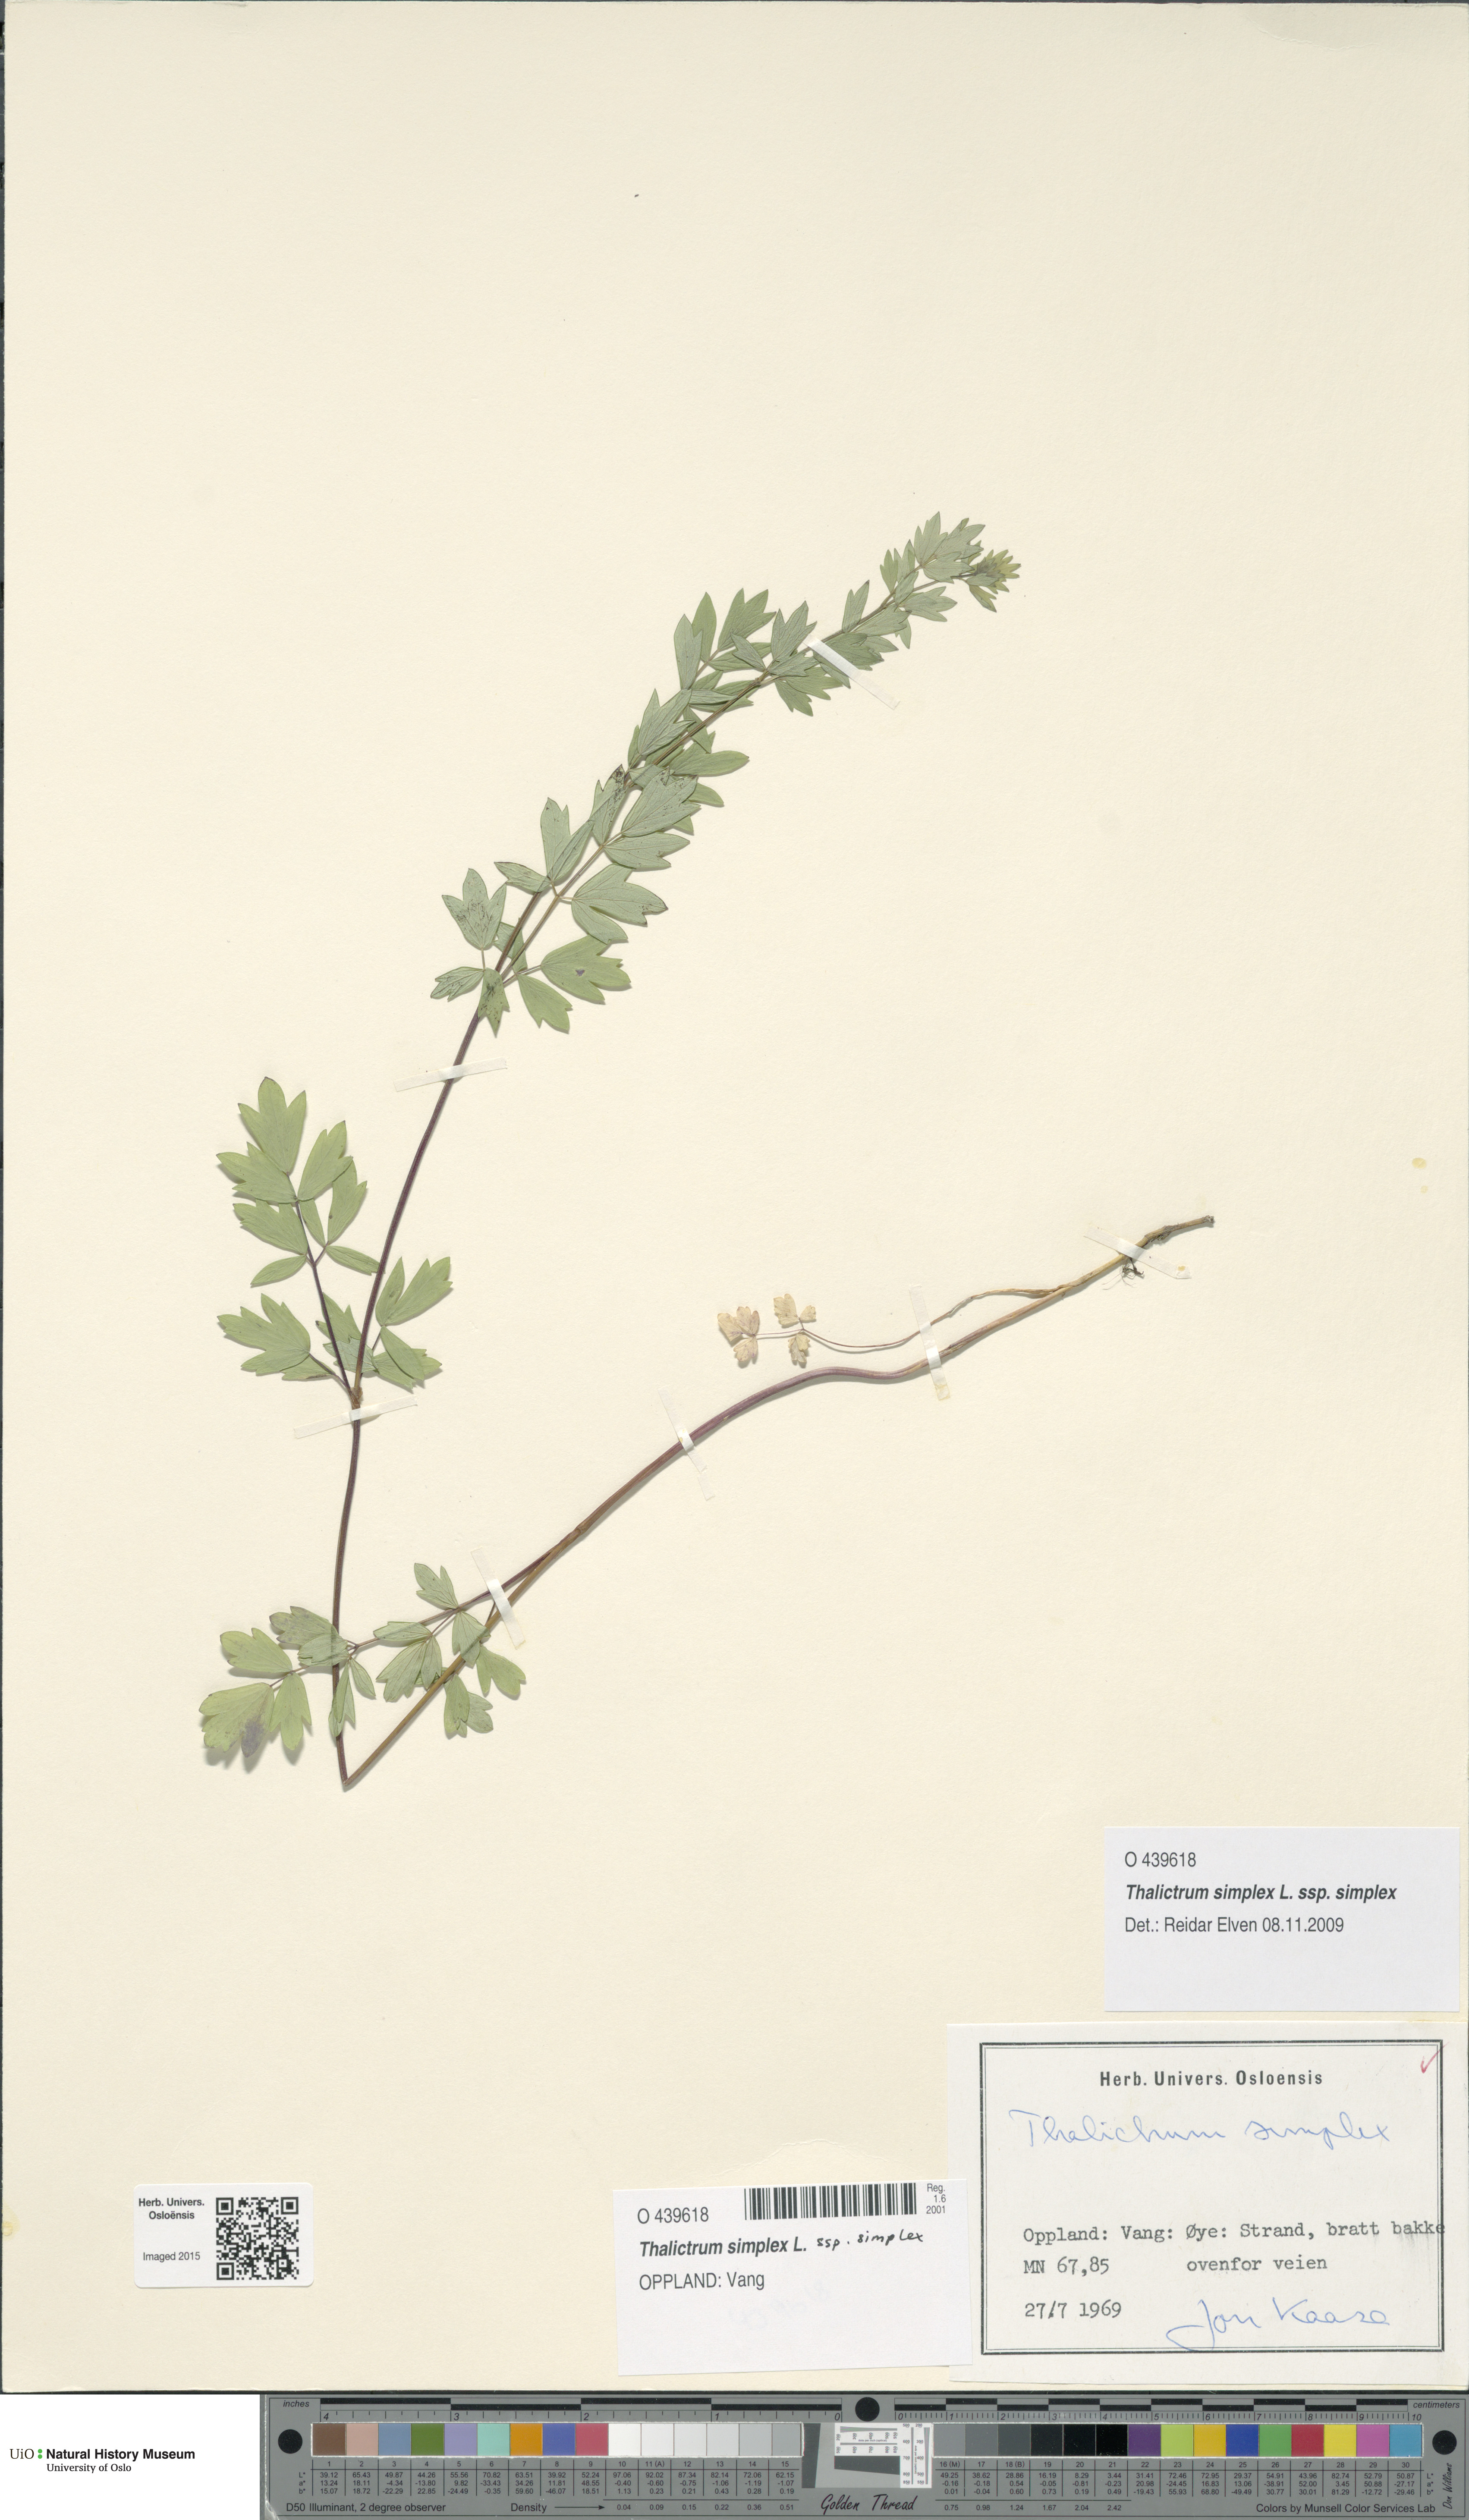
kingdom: Plantae
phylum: Tracheophyta
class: Magnoliopsida
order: Ranunculales
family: Ranunculaceae
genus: Thalictrum
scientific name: Thalictrum simplex
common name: Small meadow-rue
